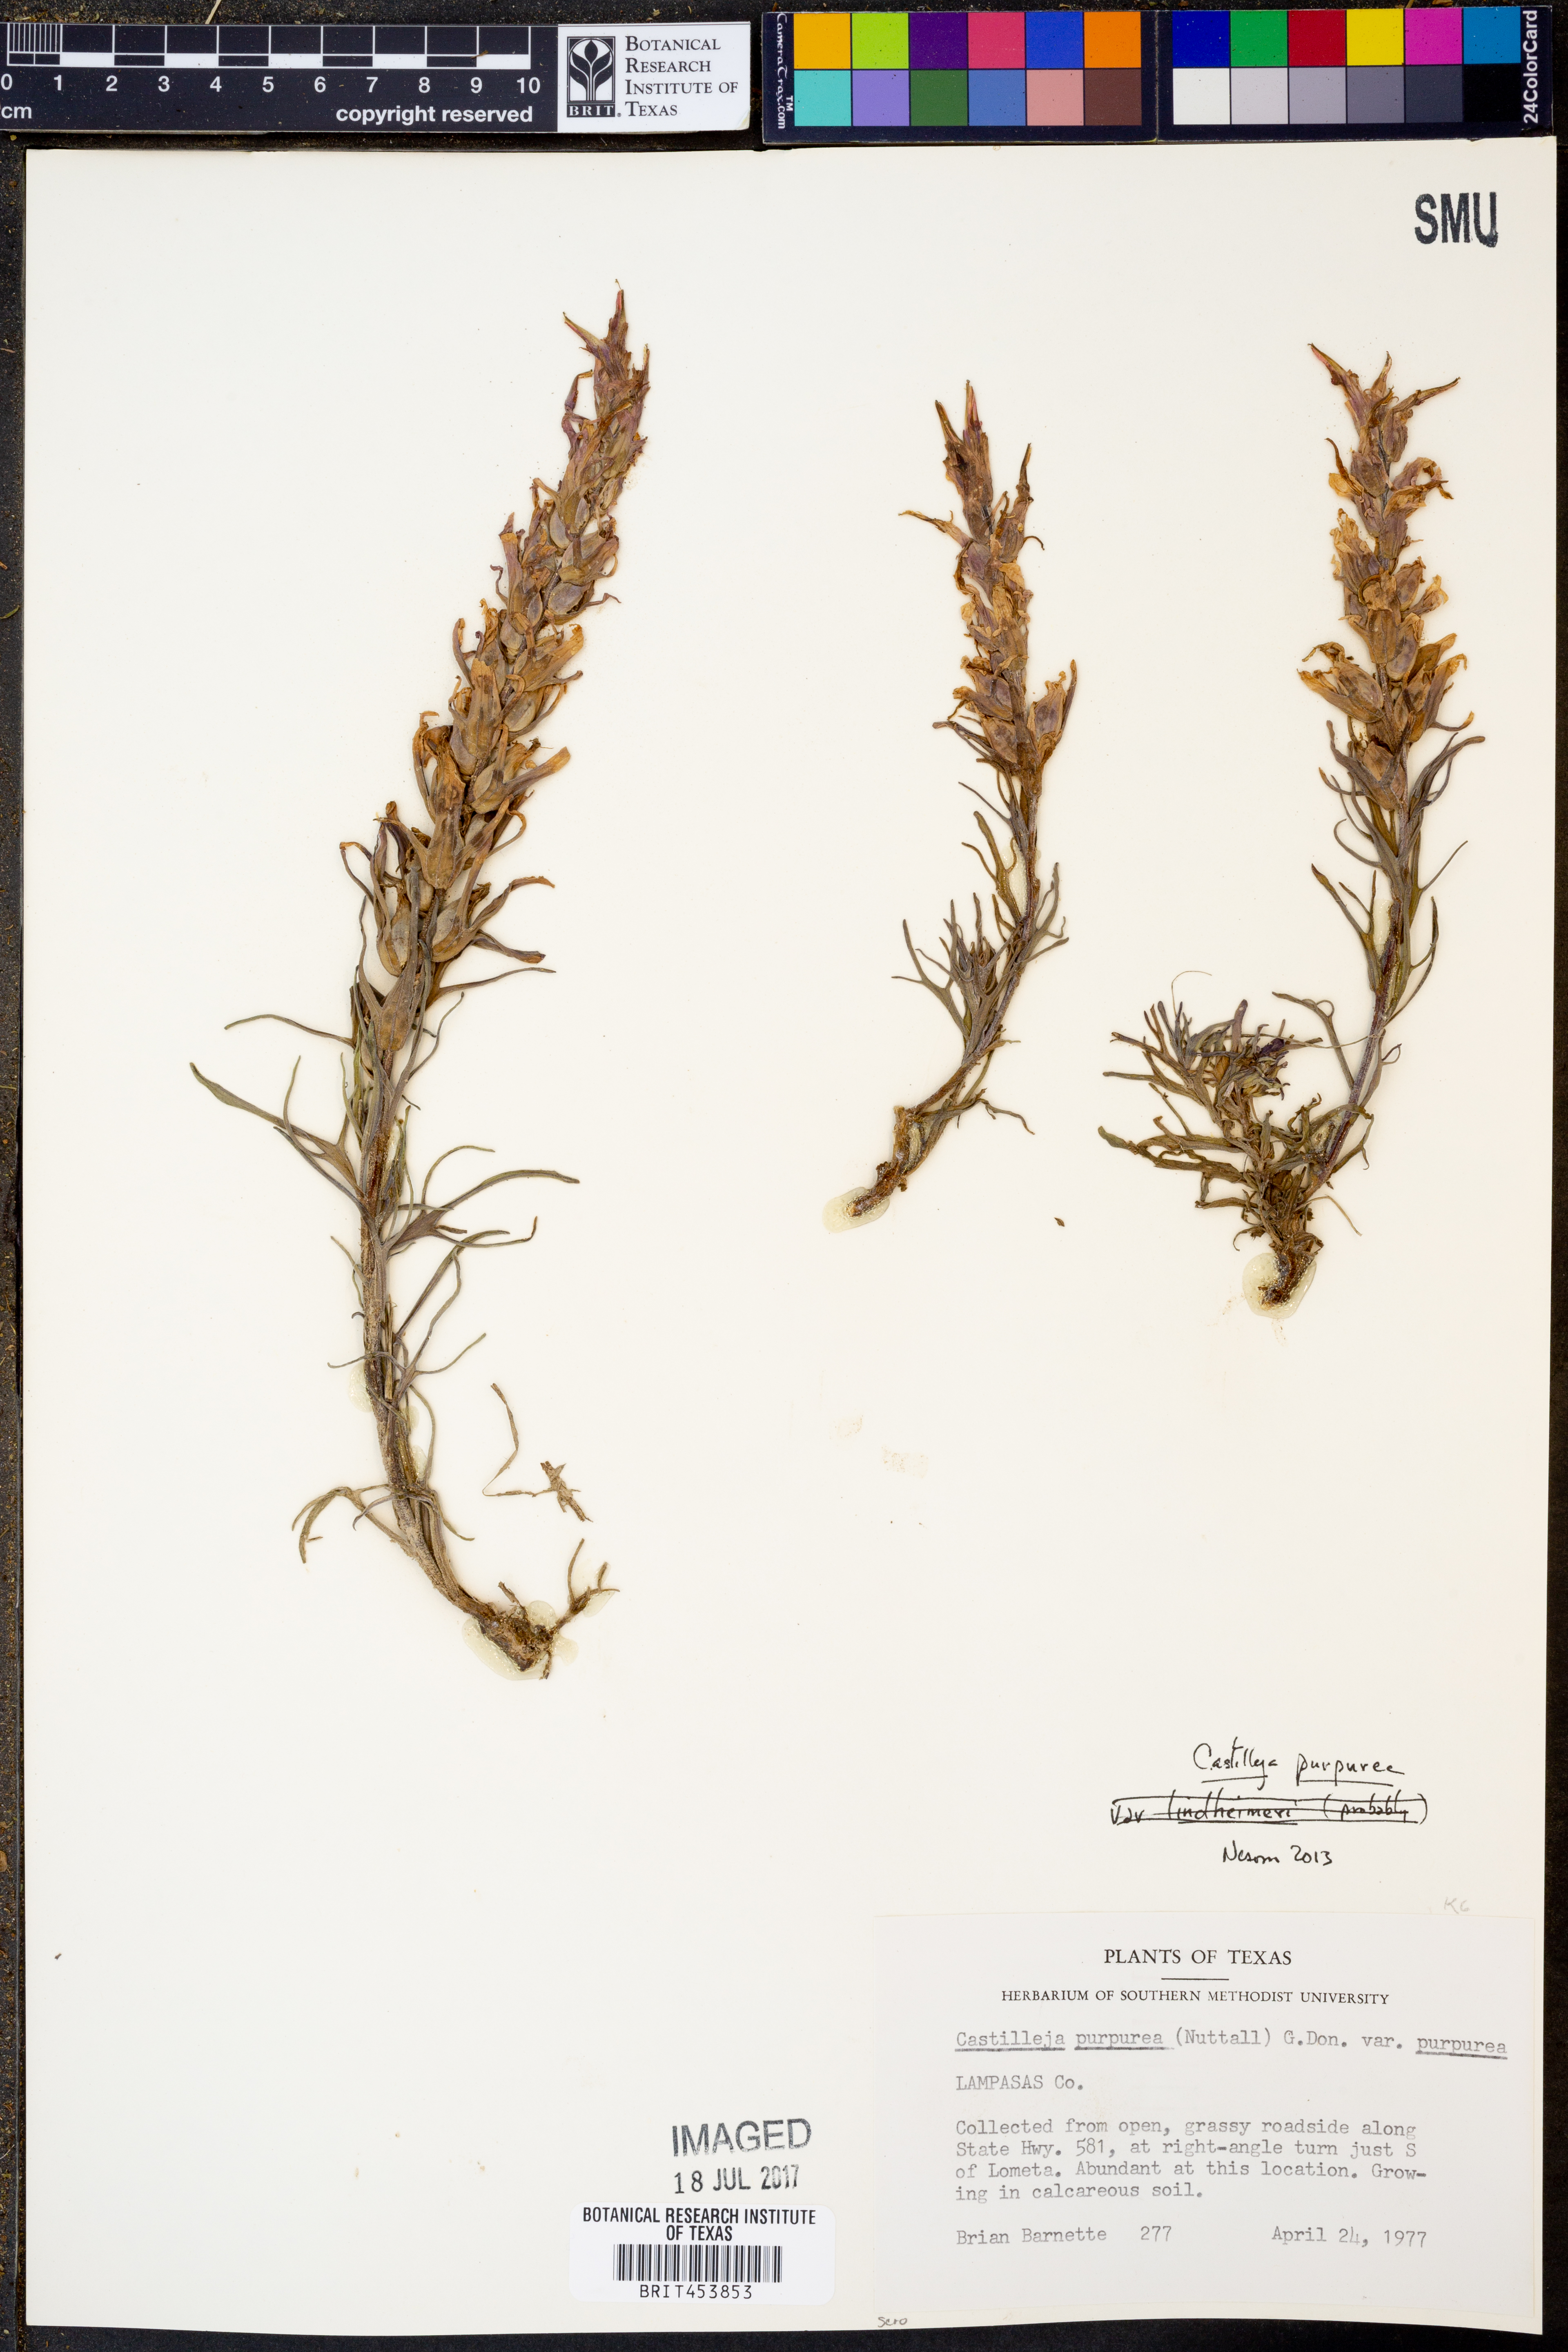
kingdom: Plantae
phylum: Tracheophyta
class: Magnoliopsida
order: Lamiales
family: Orobanchaceae
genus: Castilleja
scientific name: Castilleja purpurea
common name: Plains paintbrush
